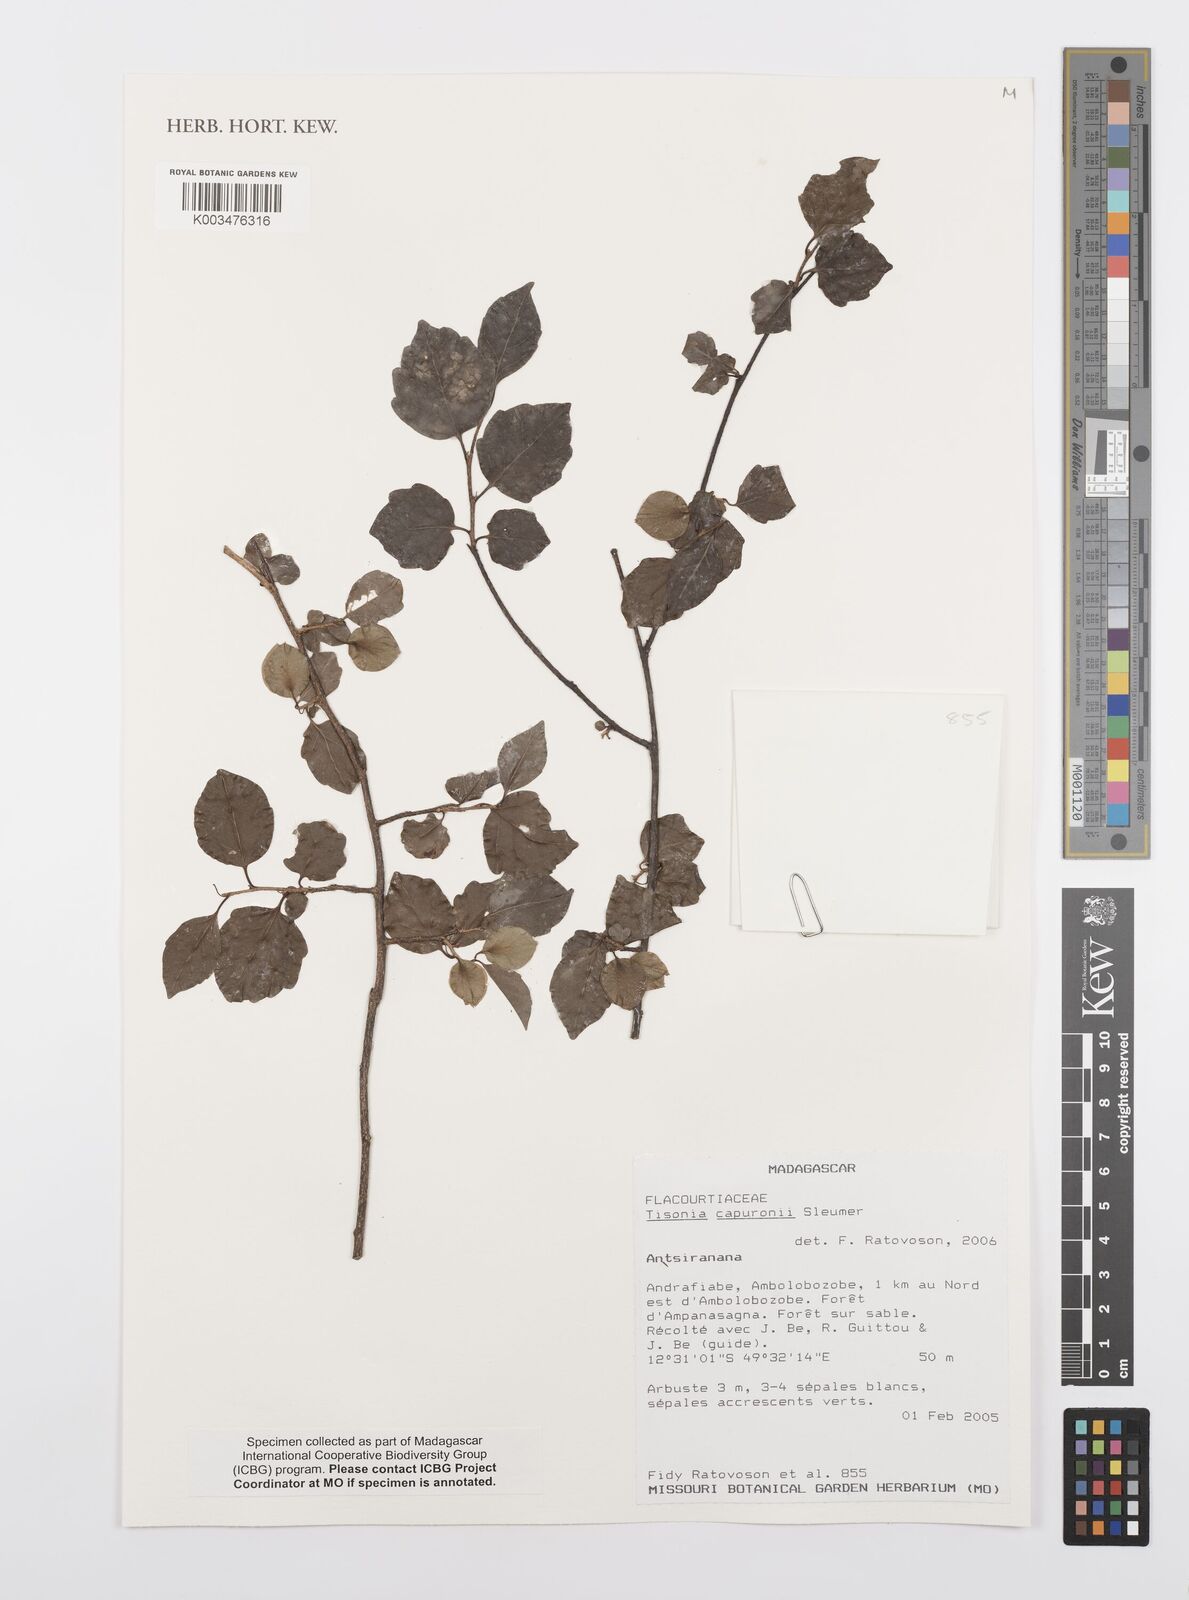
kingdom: Plantae
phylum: Tracheophyta
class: Magnoliopsida
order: Malpighiales
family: Salicaceae
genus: Tisonia
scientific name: Tisonia capuronii
